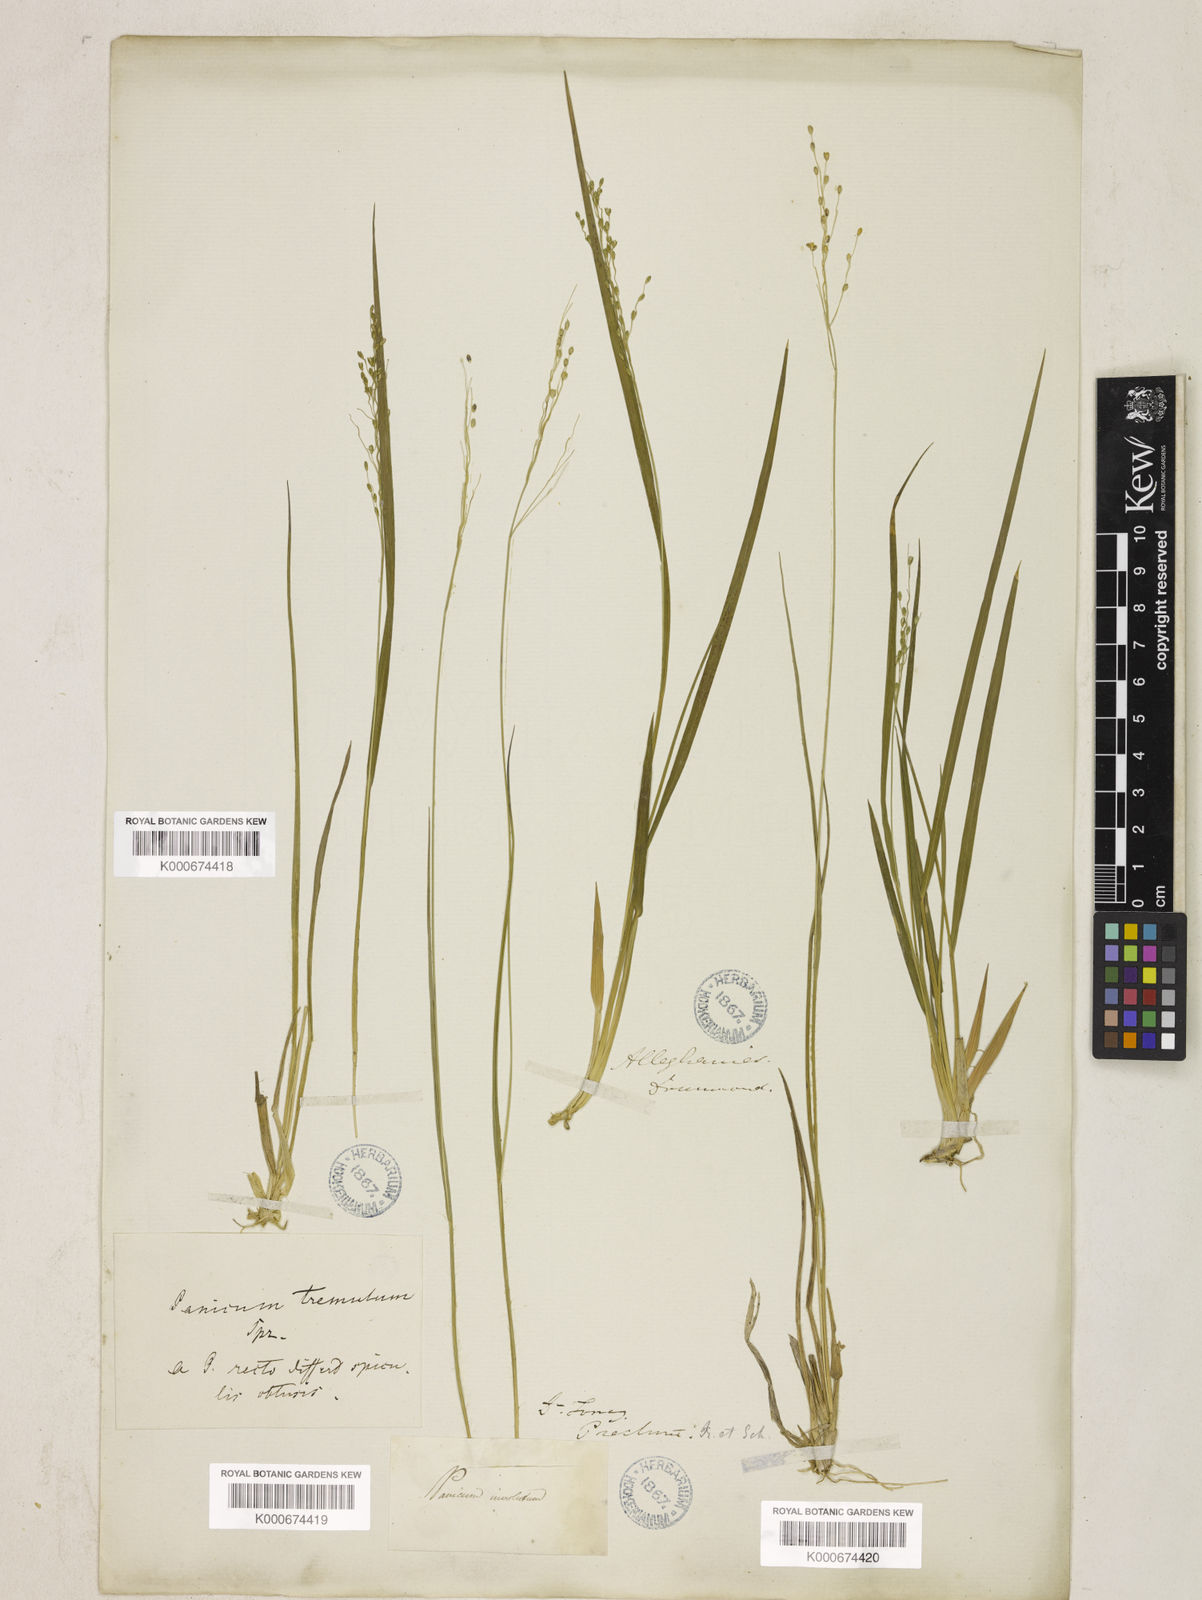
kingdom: Plantae
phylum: Tracheophyta
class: Liliopsida
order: Poales
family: Poaceae
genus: Dichanthelium
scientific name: Dichanthelium depauperatum
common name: Depauperate panicgrass
